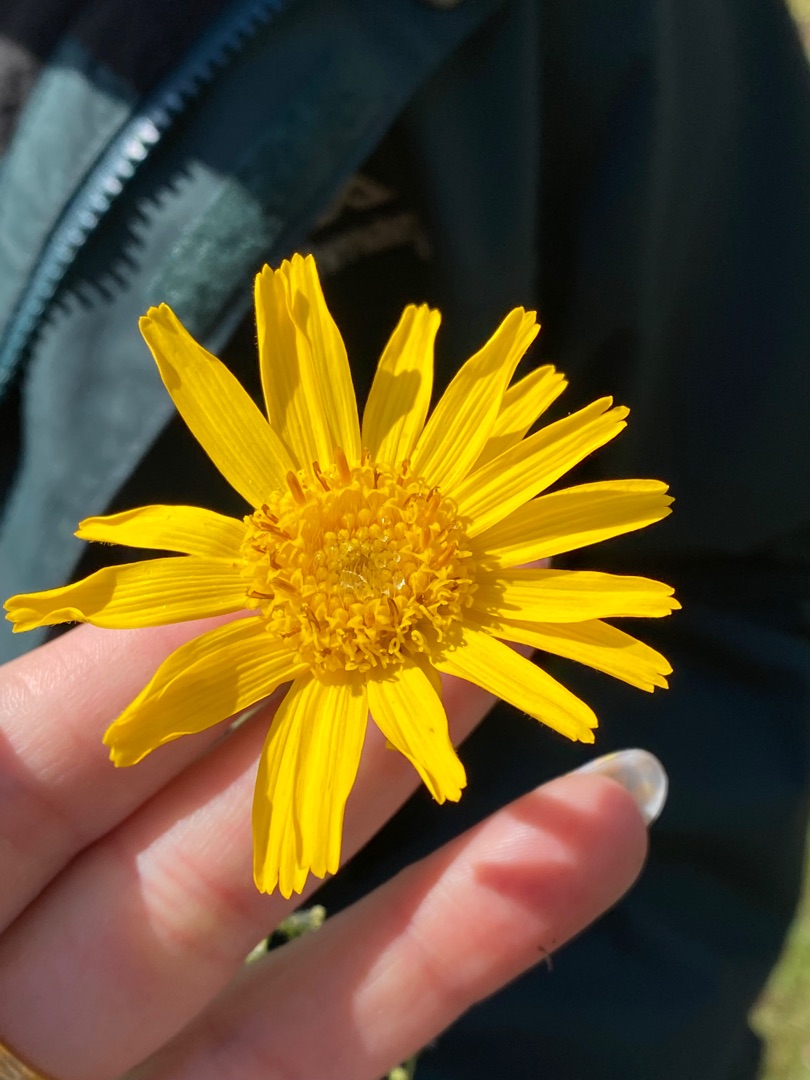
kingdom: Plantae
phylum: Tracheophyta
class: Magnoliopsida
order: Asterales
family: Asteraceae
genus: Arnica
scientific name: Arnica montana
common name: Guldblomme
